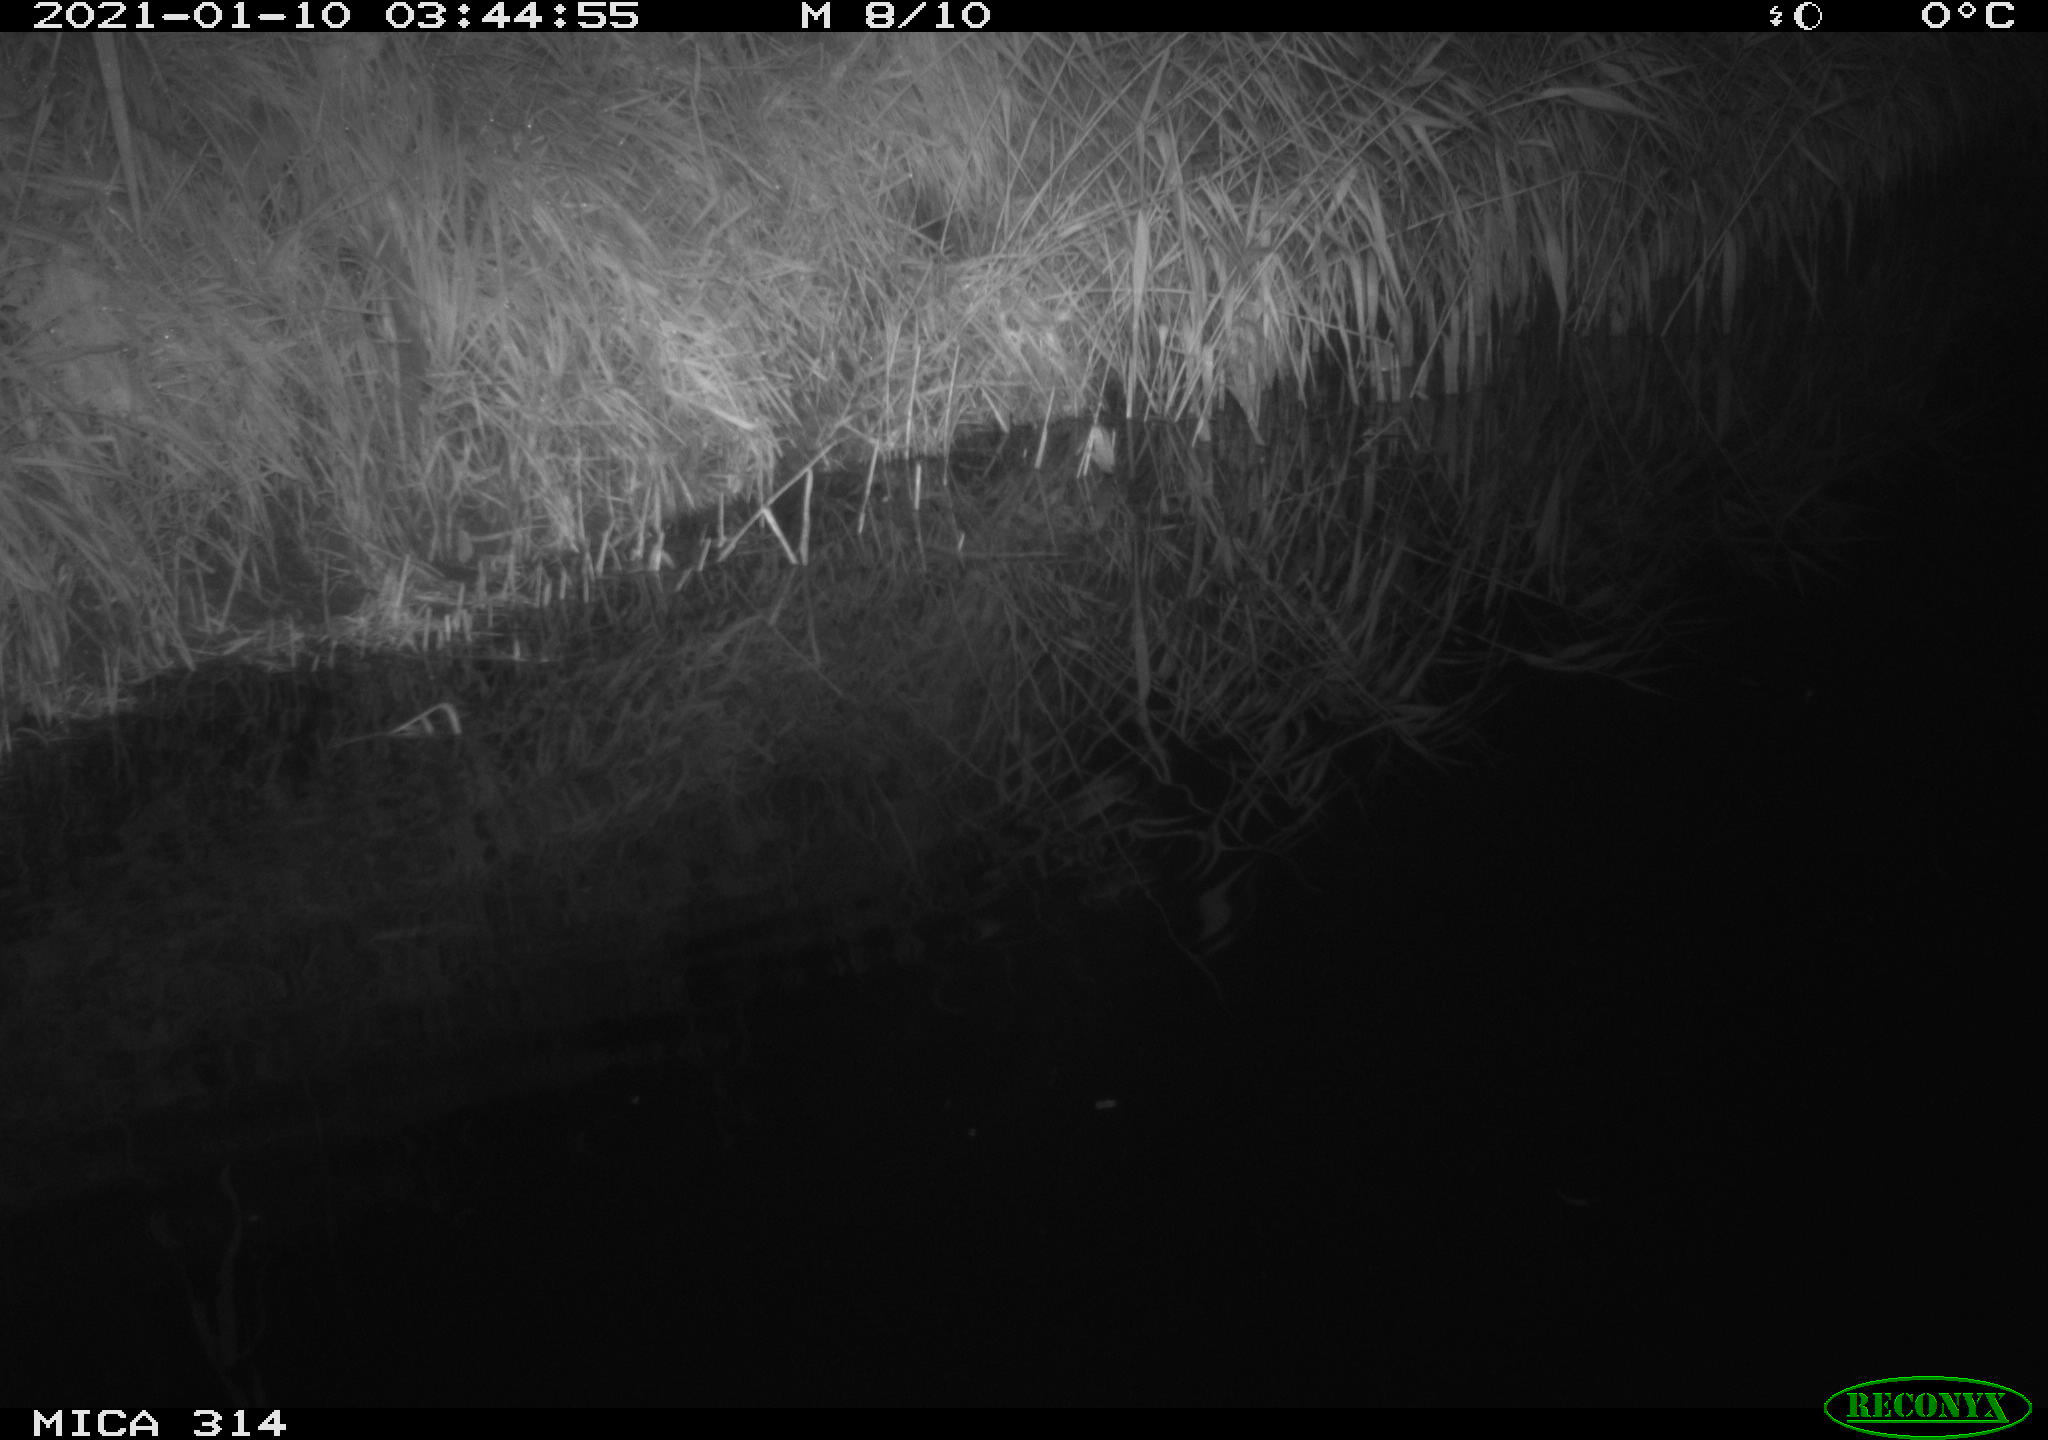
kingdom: Animalia
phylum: Chordata
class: Mammalia
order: Rodentia
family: Muridae
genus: Rattus
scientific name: Rattus norvegicus
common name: Brown rat
